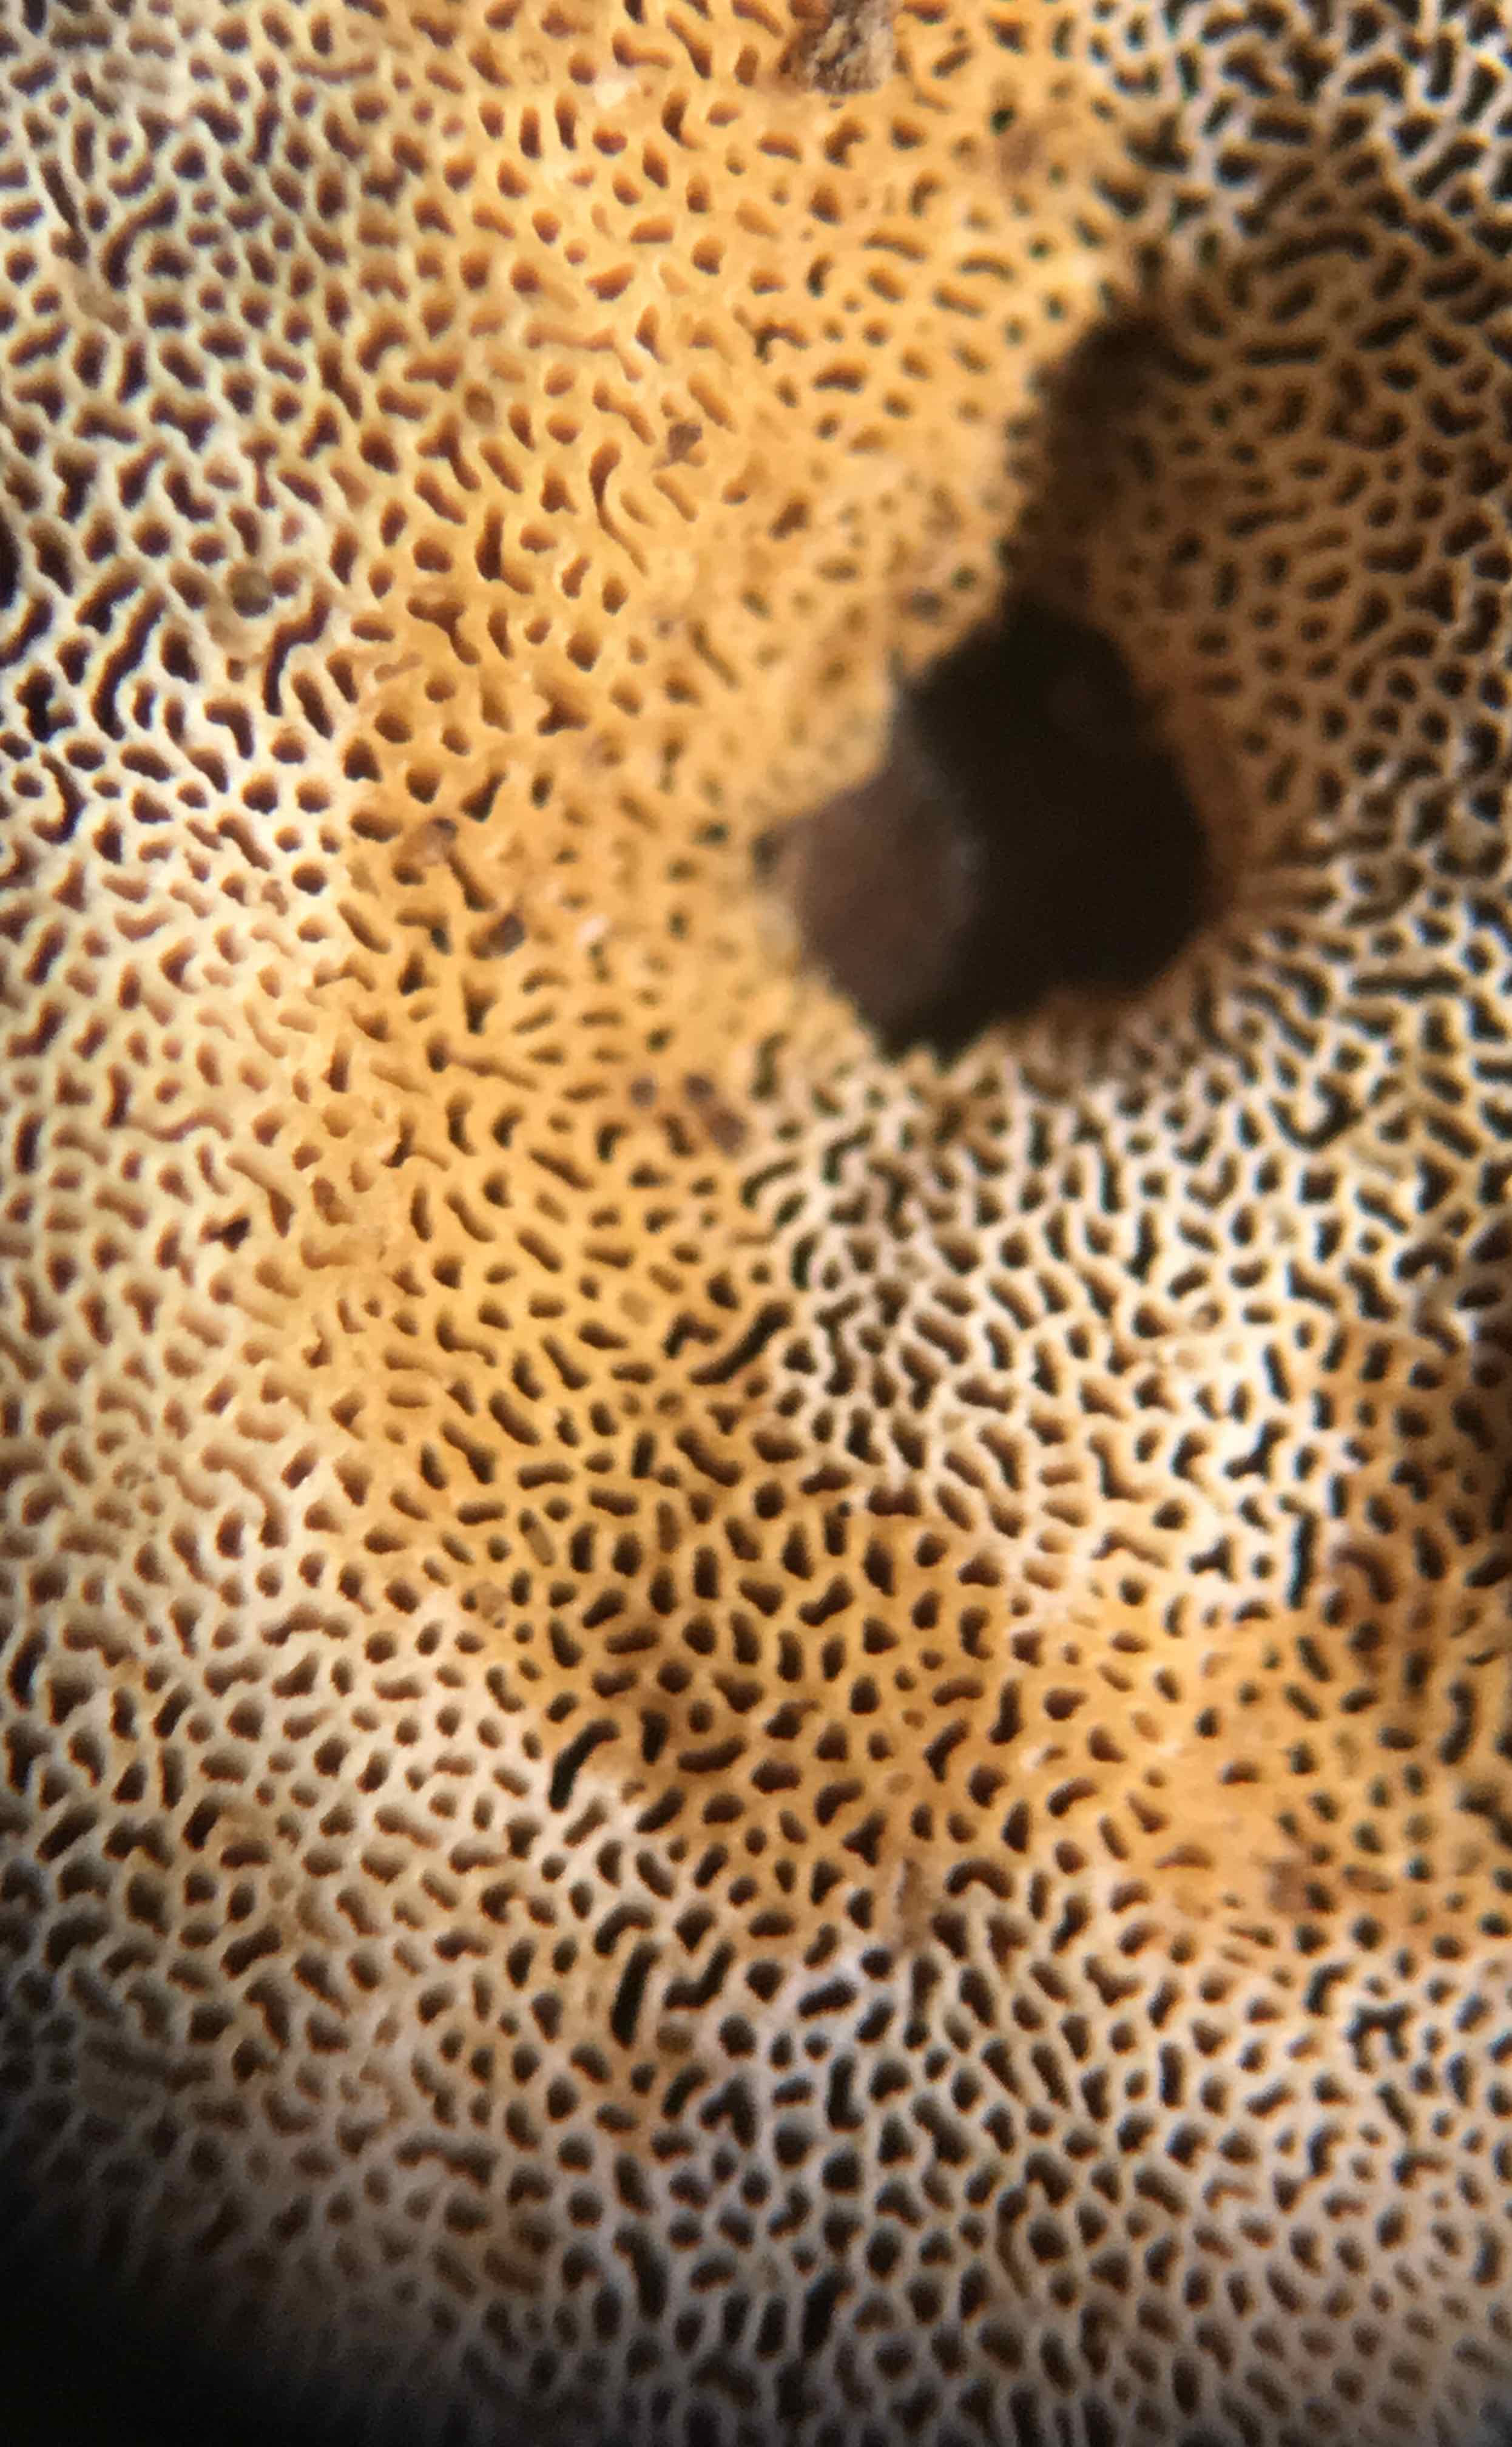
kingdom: Fungi
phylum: Basidiomycota
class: Agaricomycetes
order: Polyporales
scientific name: Polyporales
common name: poresvampordenen
